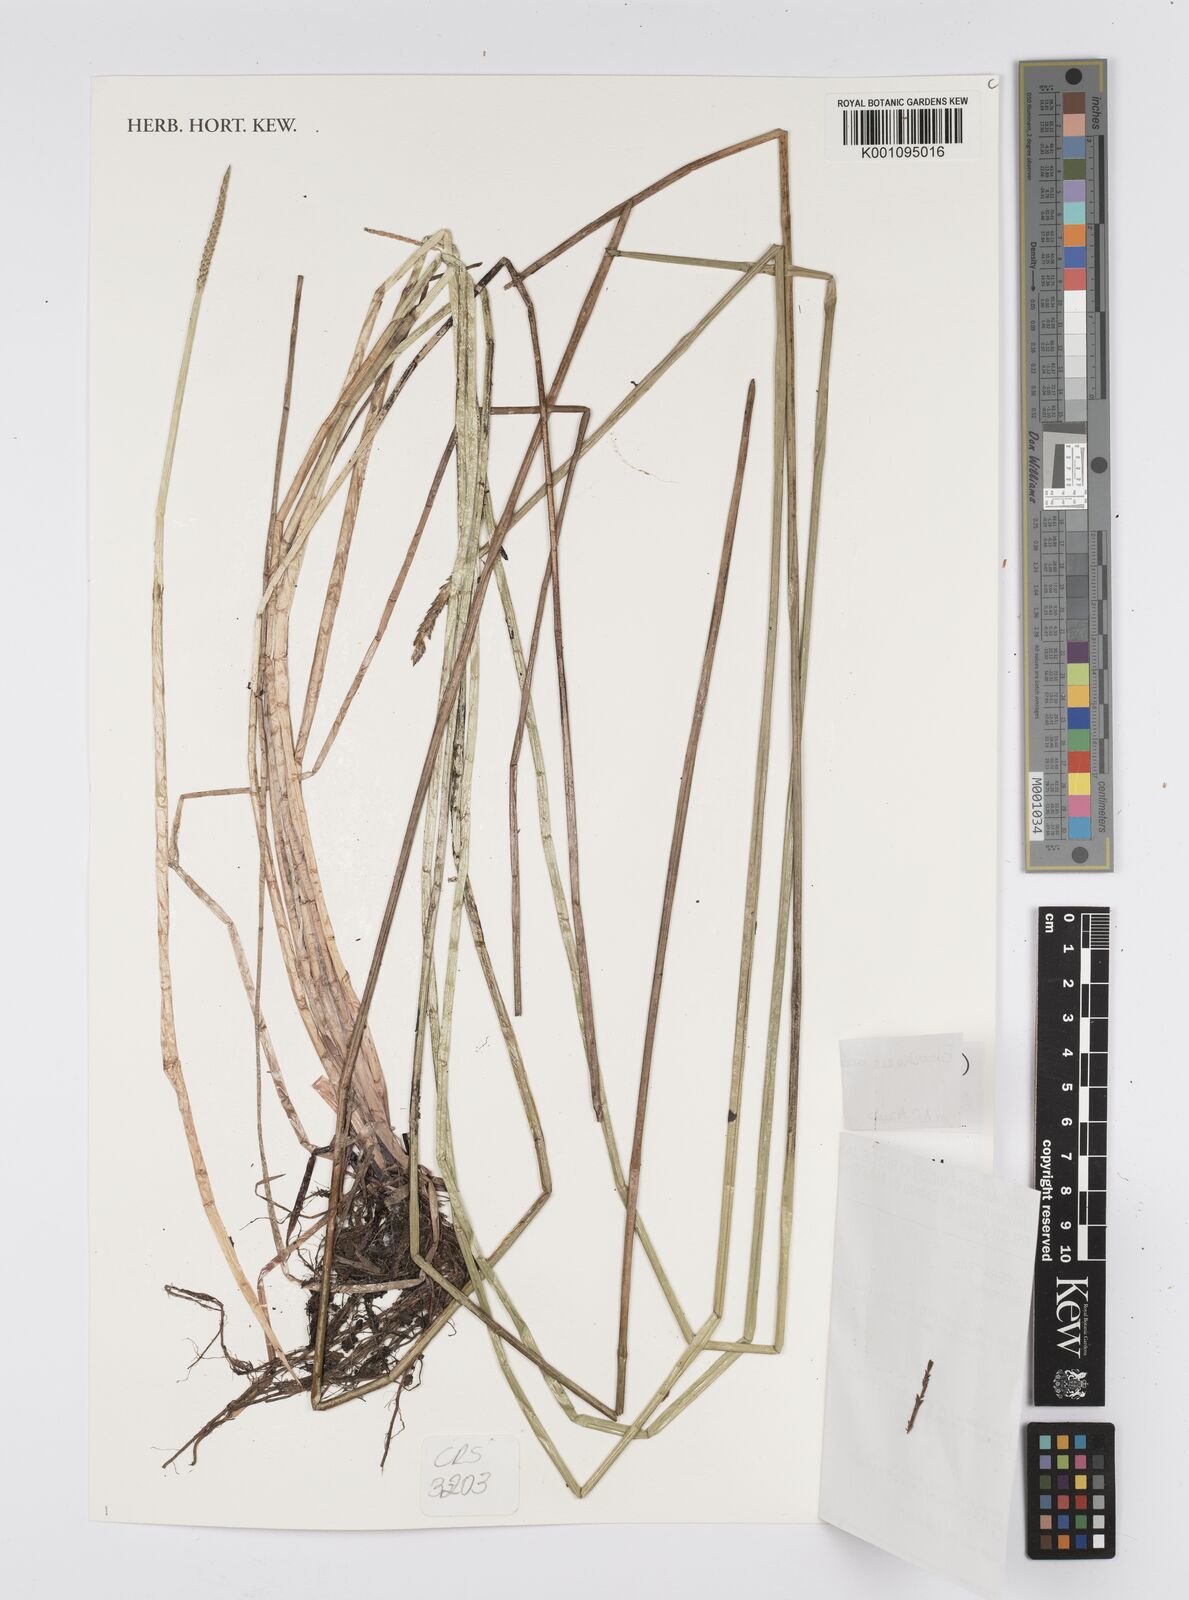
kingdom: Plantae
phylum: Tracheophyta
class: Liliopsida
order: Poales
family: Cyperaceae
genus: Eleocharis
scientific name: Eleocharis acutangula
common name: Acute spikerush
